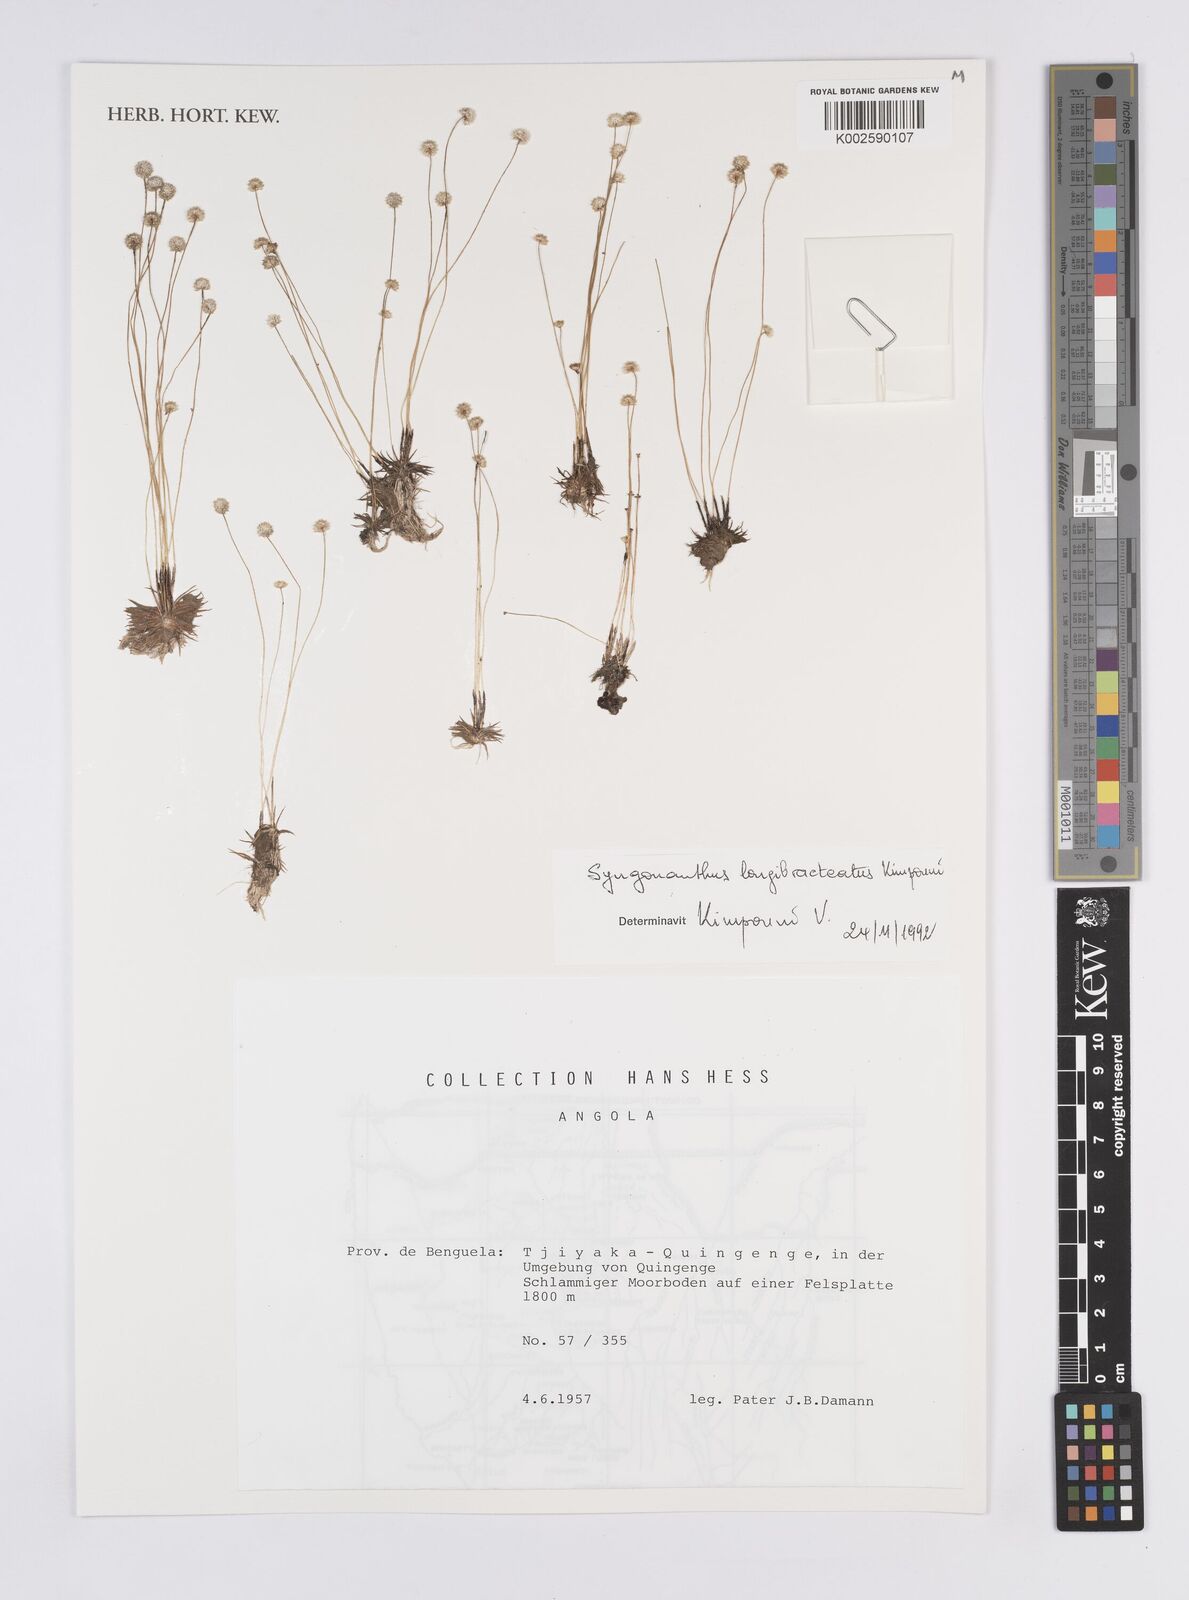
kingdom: Plantae
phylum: Tracheophyta
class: Liliopsida
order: Poales
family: Eriocaulaceae
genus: Syngonanthus
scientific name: Syngonanthus longibracteatus
